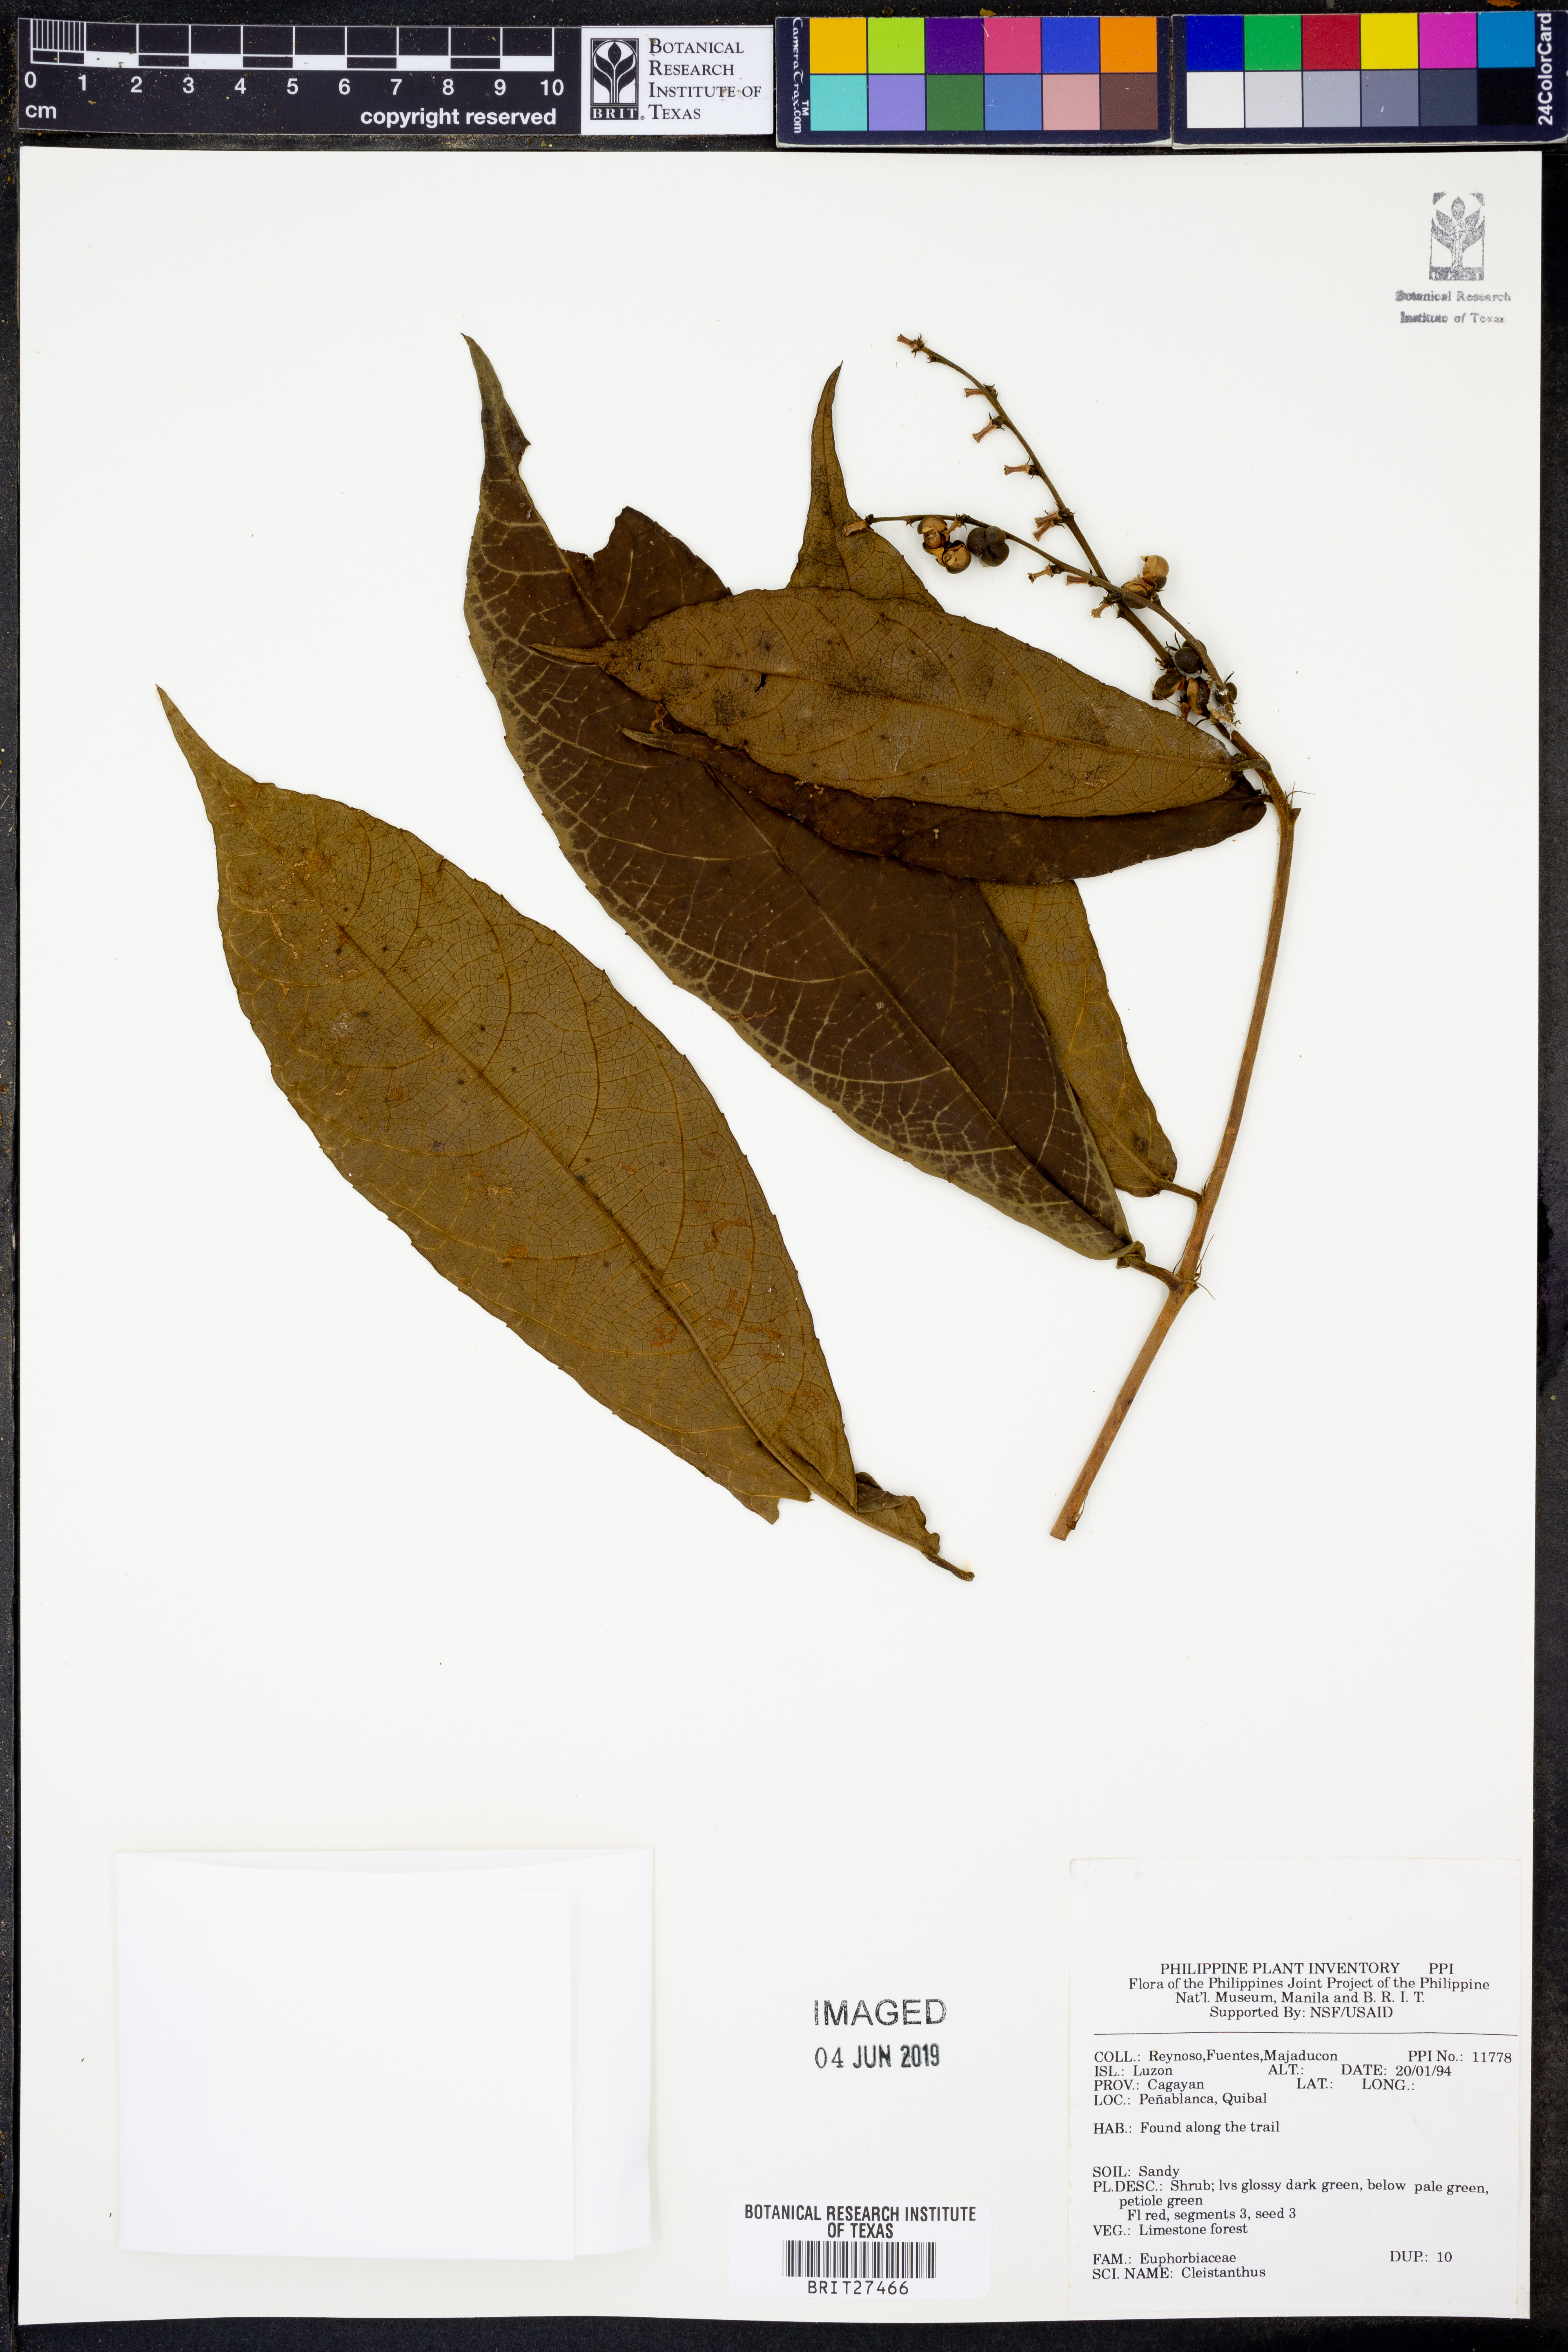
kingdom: Plantae
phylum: Tracheophyta
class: Magnoliopsida
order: Malpighiales
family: Phyllanthaceae
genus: Cleistanthus
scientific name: Cleistanthus
